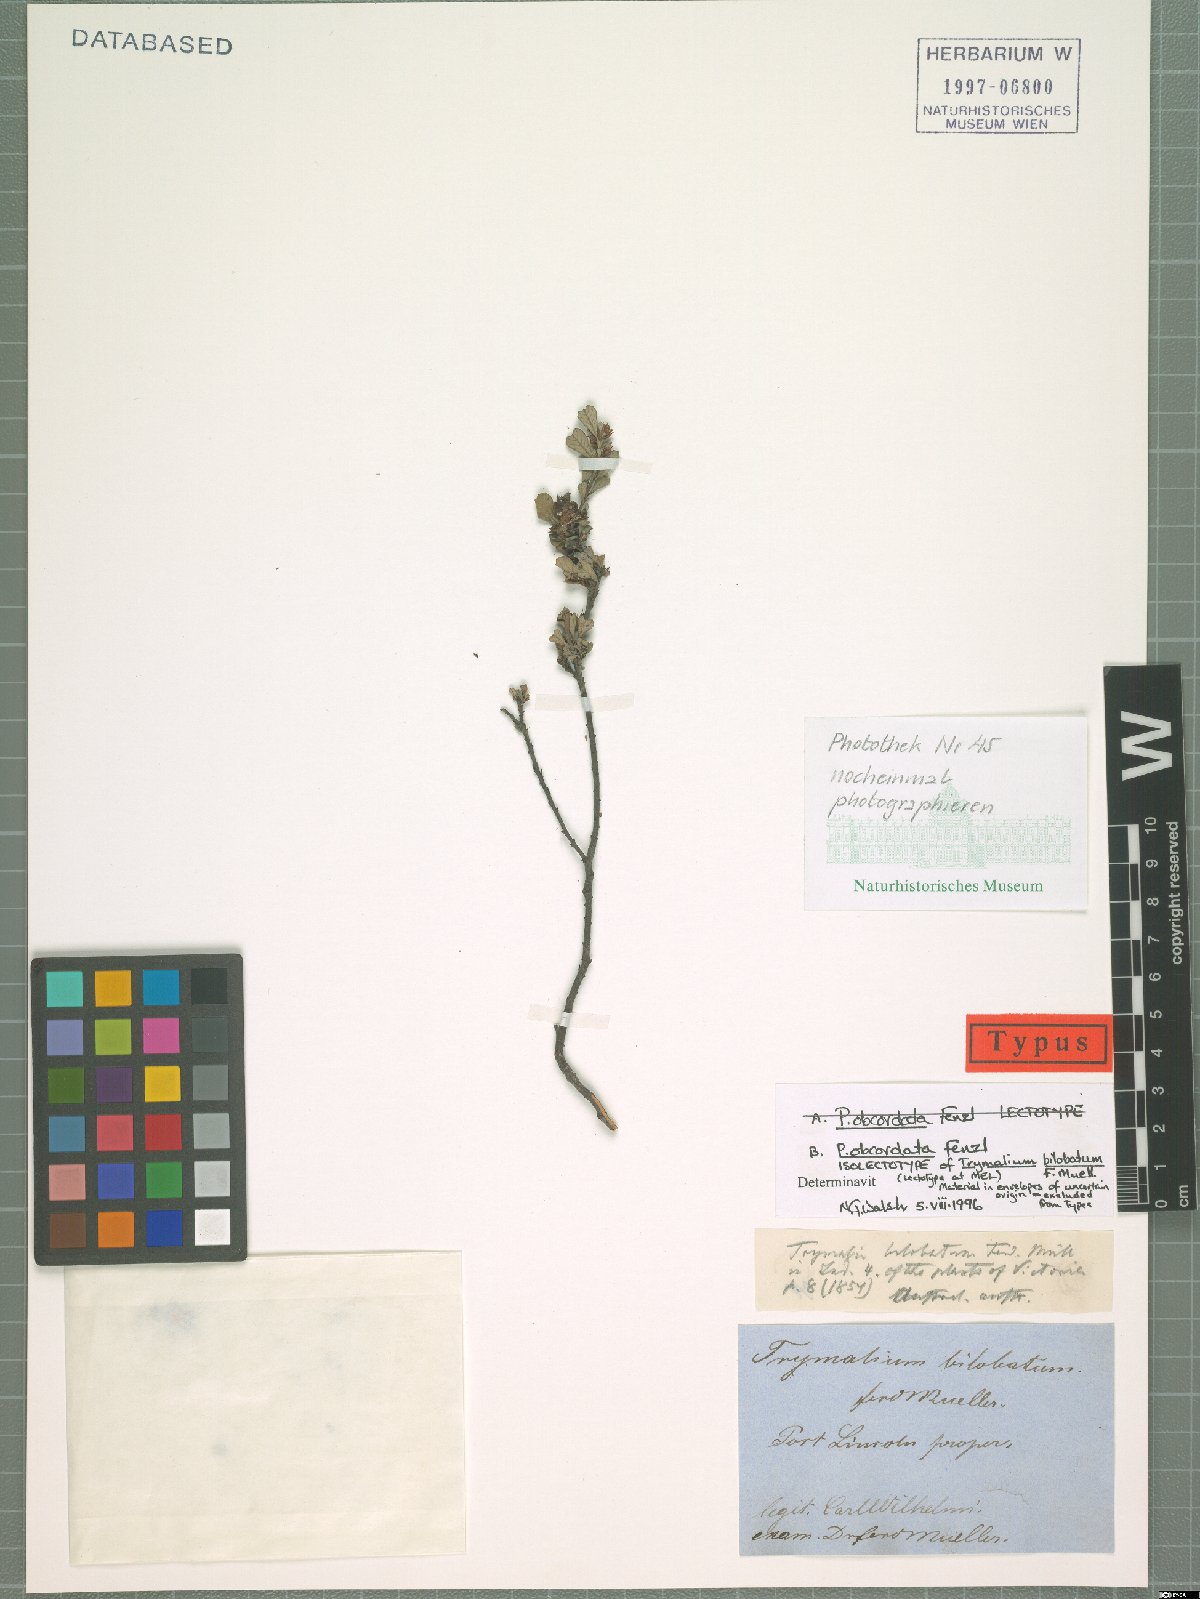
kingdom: Plantae
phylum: Tracheophyta
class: Magnoliopsida
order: Rosales
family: Rhamnaceae
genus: Pomaderris
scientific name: Pomaderris obcordata
